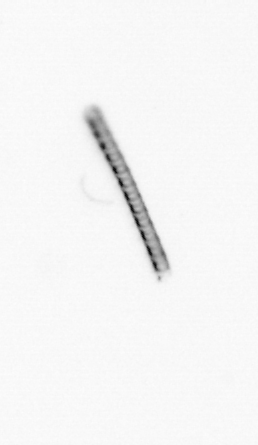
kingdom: Chromista
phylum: Ochrophyta
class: Bacillariophyceae
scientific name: Bacillariophyceae
